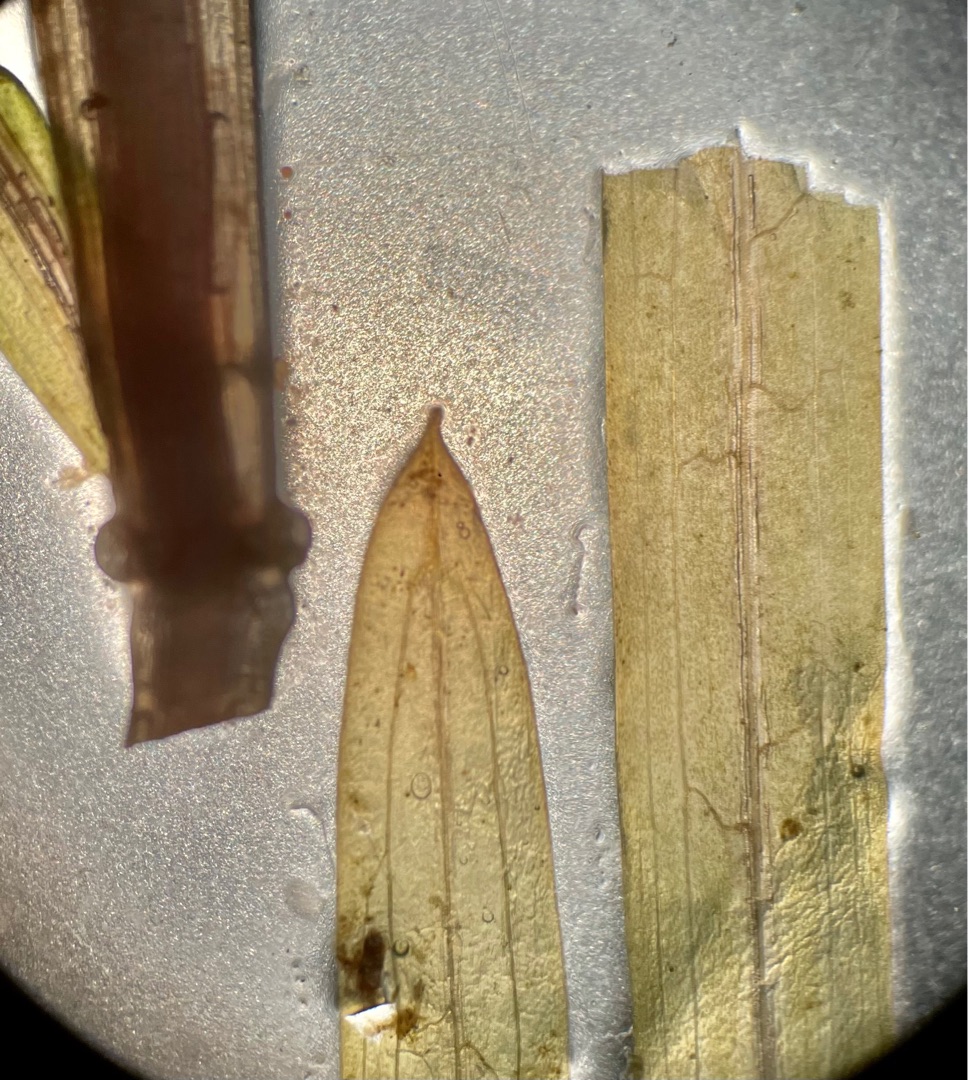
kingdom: Plantae
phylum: Tracheophyta
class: Liliopsida
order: Alismatales
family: Potamogetonaceae
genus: Potamogeton
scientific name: Potamogeton friesii
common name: Brodbladet vandaks
